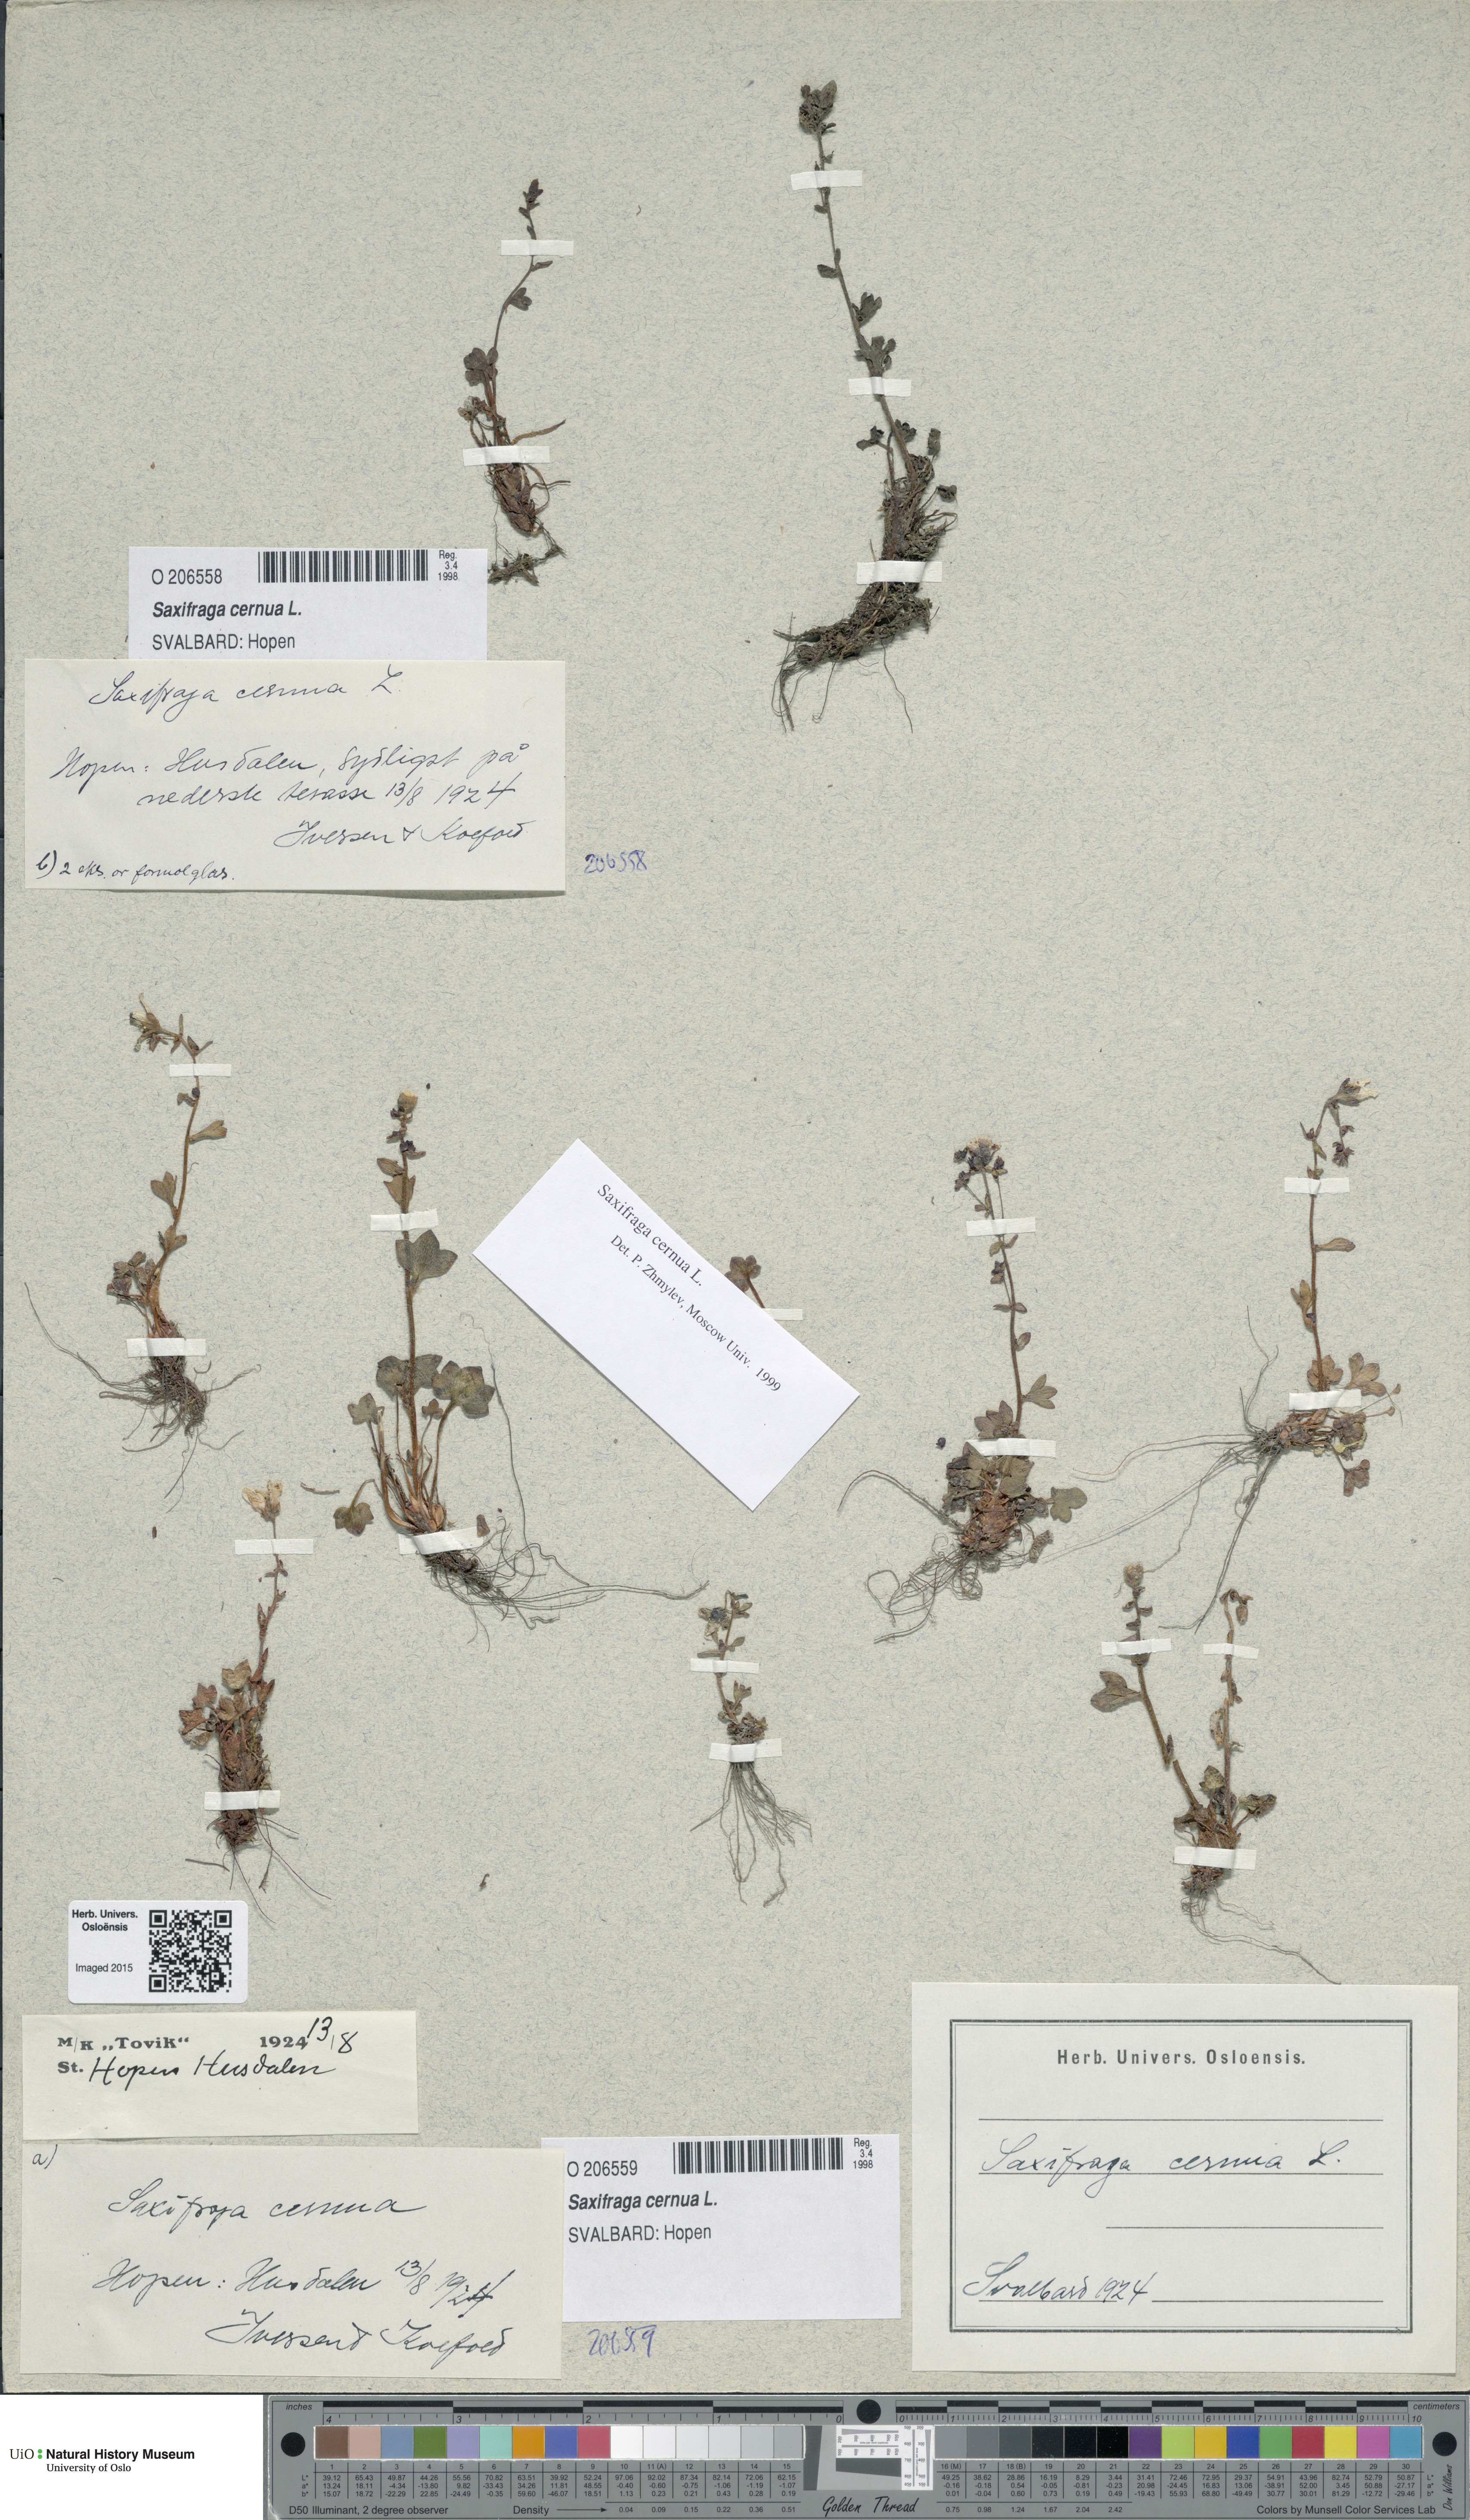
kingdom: Plantae
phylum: Tracheophyta
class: Magnoliopsida
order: Saxifragales
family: Saxifragaceae
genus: Saxifraga
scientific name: Saxifraga cernua
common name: Drooping saxifrage
